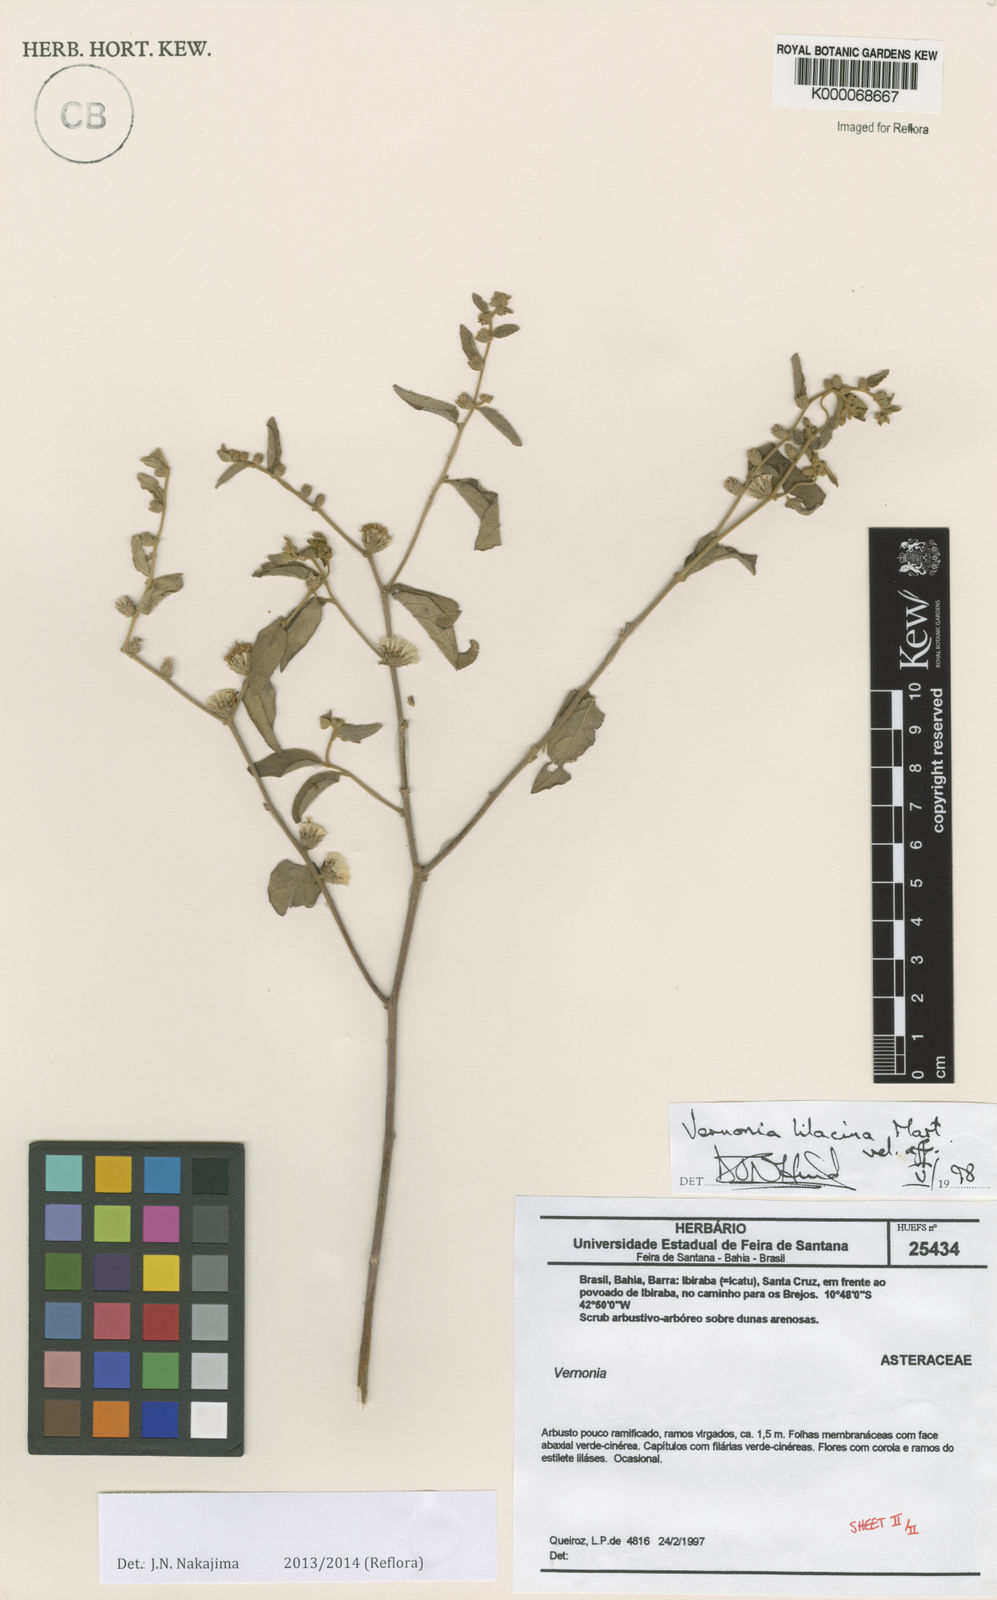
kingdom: Plantae
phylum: Tracheophyta
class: Magnoliopsida
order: Asterales
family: Asteraceae
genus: Lepidaploa
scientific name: Lepidaploa chalybaea
